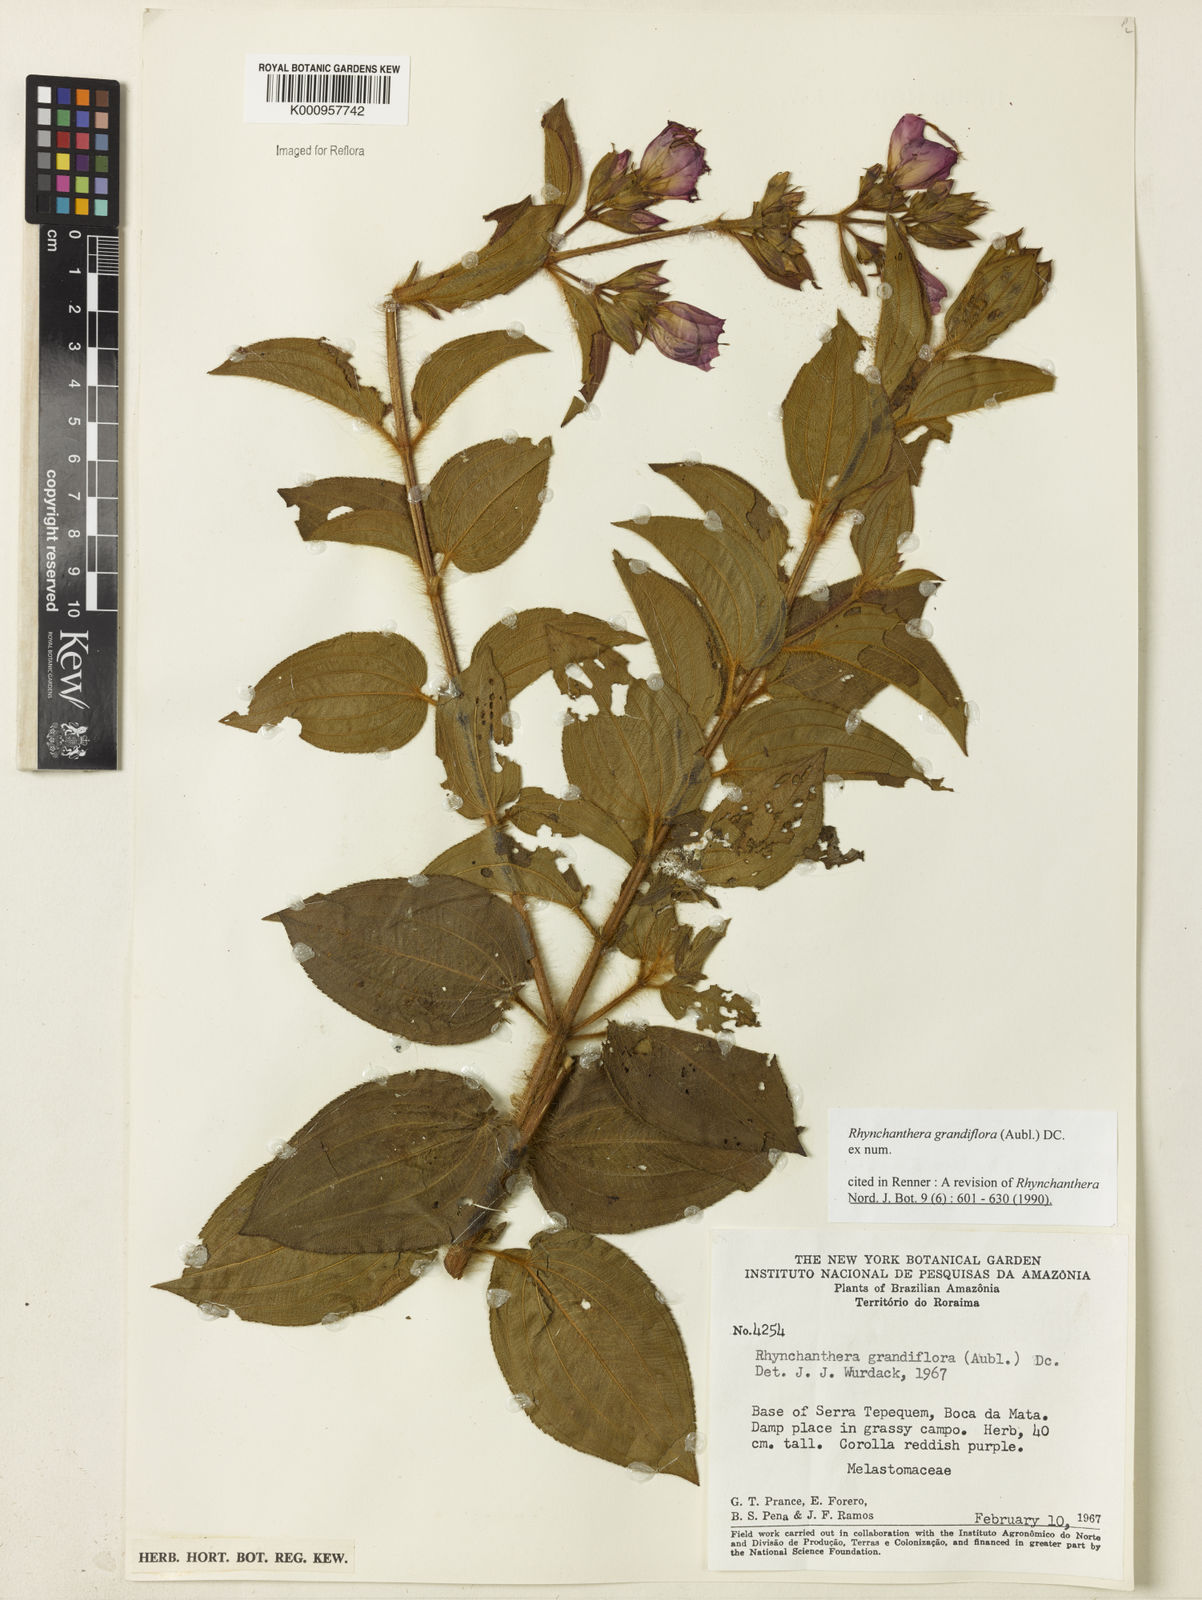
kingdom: Plantae
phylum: Tracheophyta
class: Magnoliopsida
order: Myrtales
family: Melastomataceae
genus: Rhynchanthera
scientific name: Rhynchanthera grandiflora
